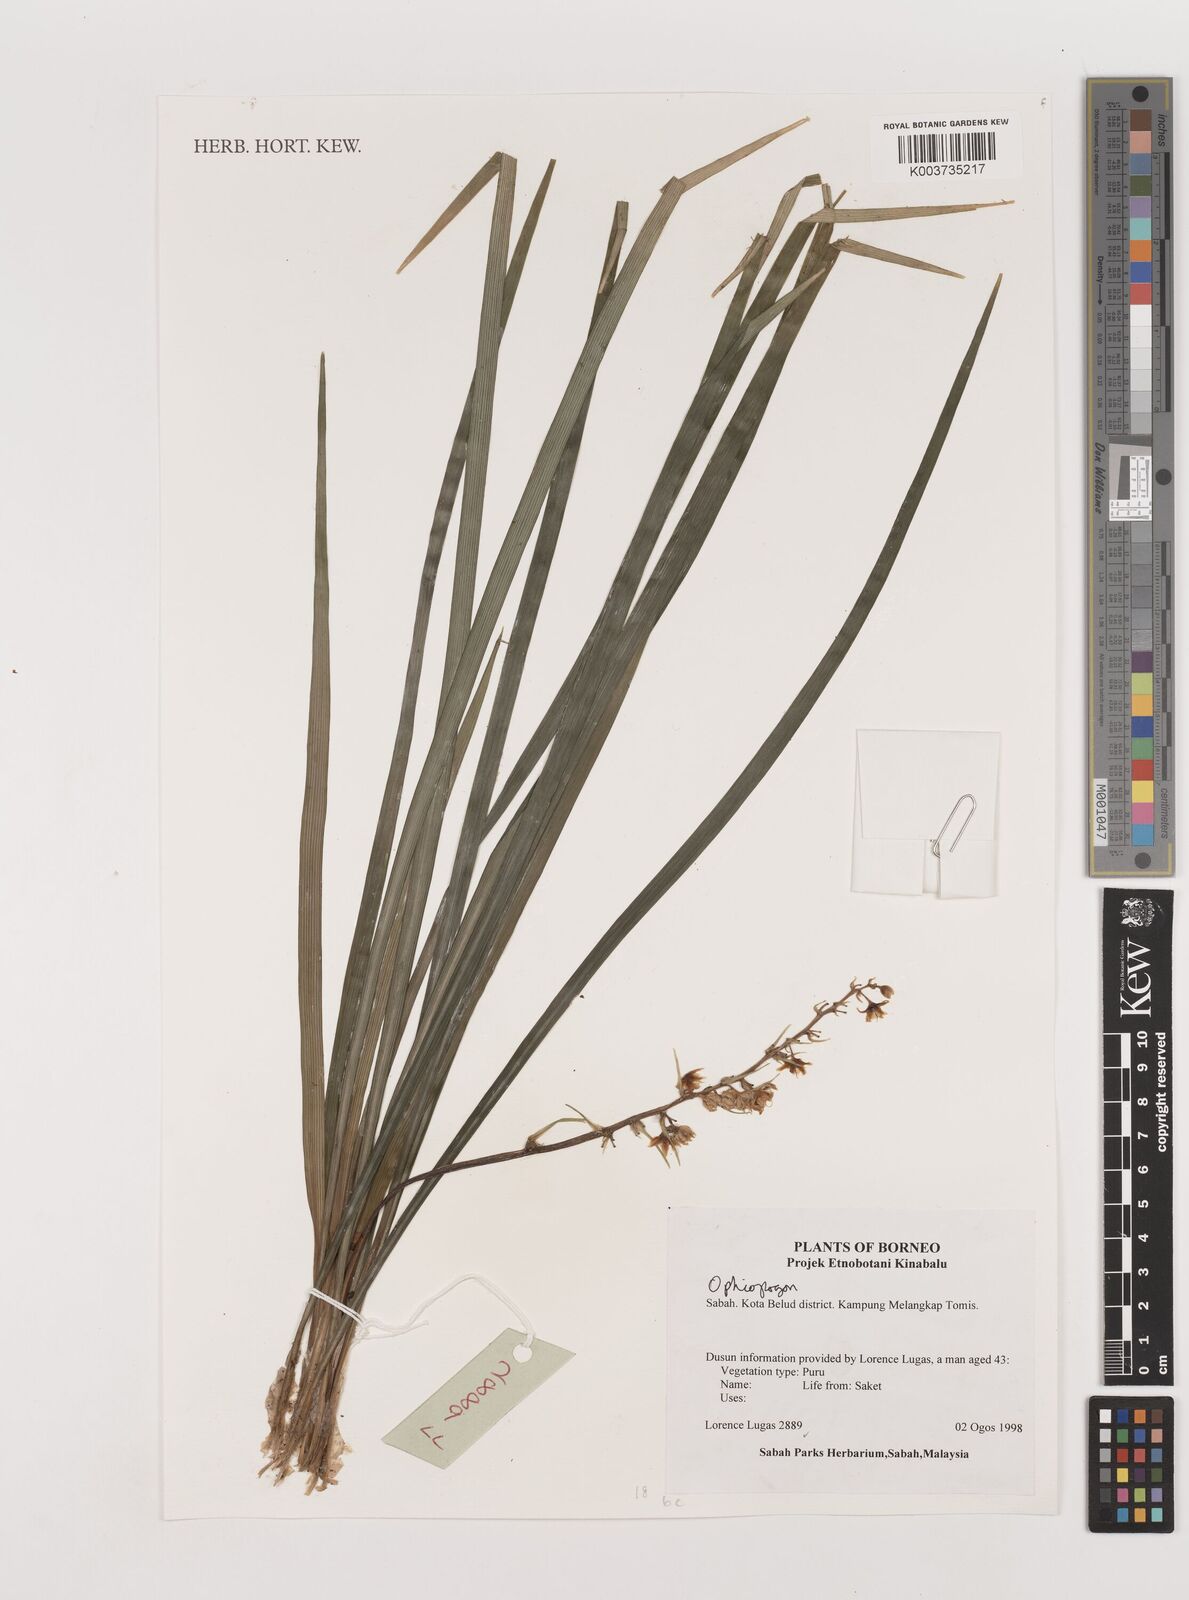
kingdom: Plantae
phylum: Tracheophyta
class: Liliopsida
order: Asparagales
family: Asparagaceae
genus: Ophiopogon
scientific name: Ophiopogon
